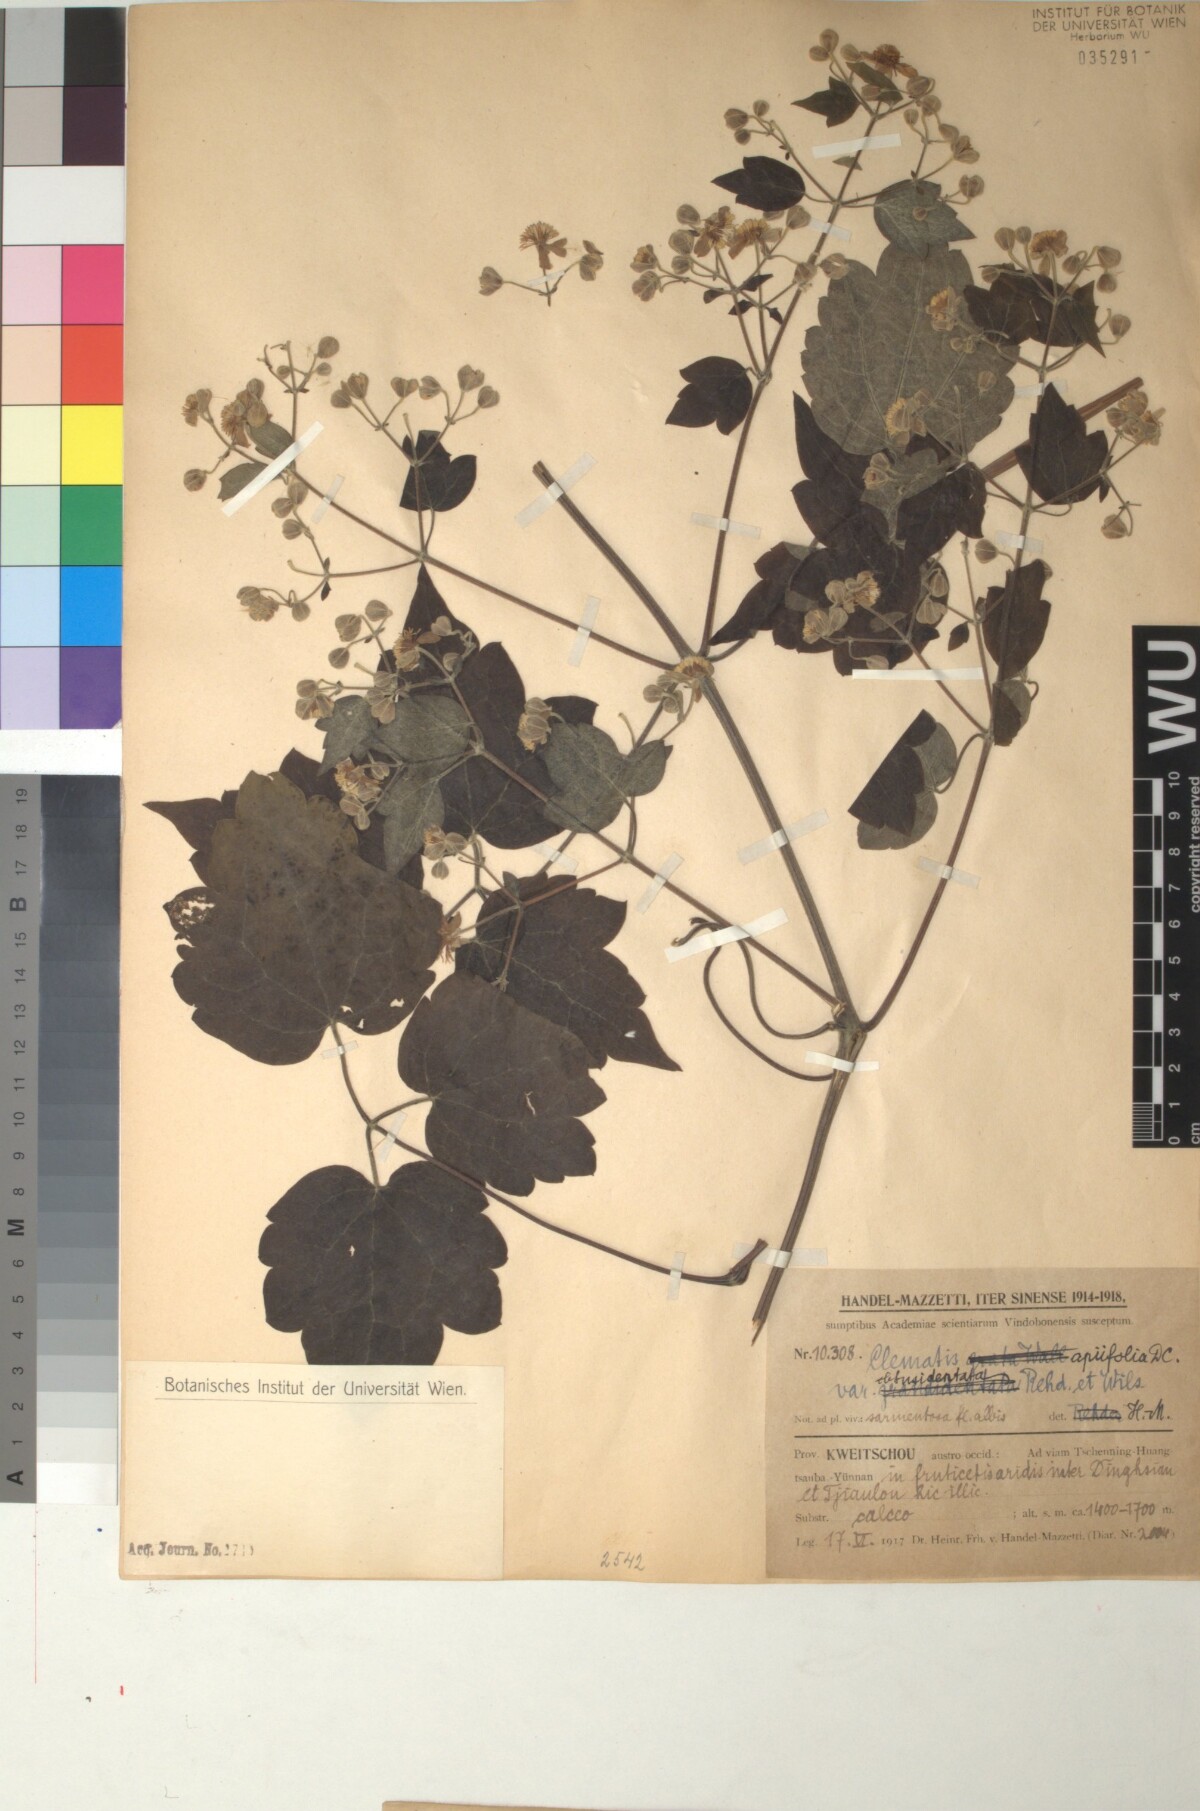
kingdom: Plantae
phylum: Tracheophyta
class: Magnoliopsida
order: Ranunculales
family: Ranunculaceae
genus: Clematis
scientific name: Clematis apiifolia
